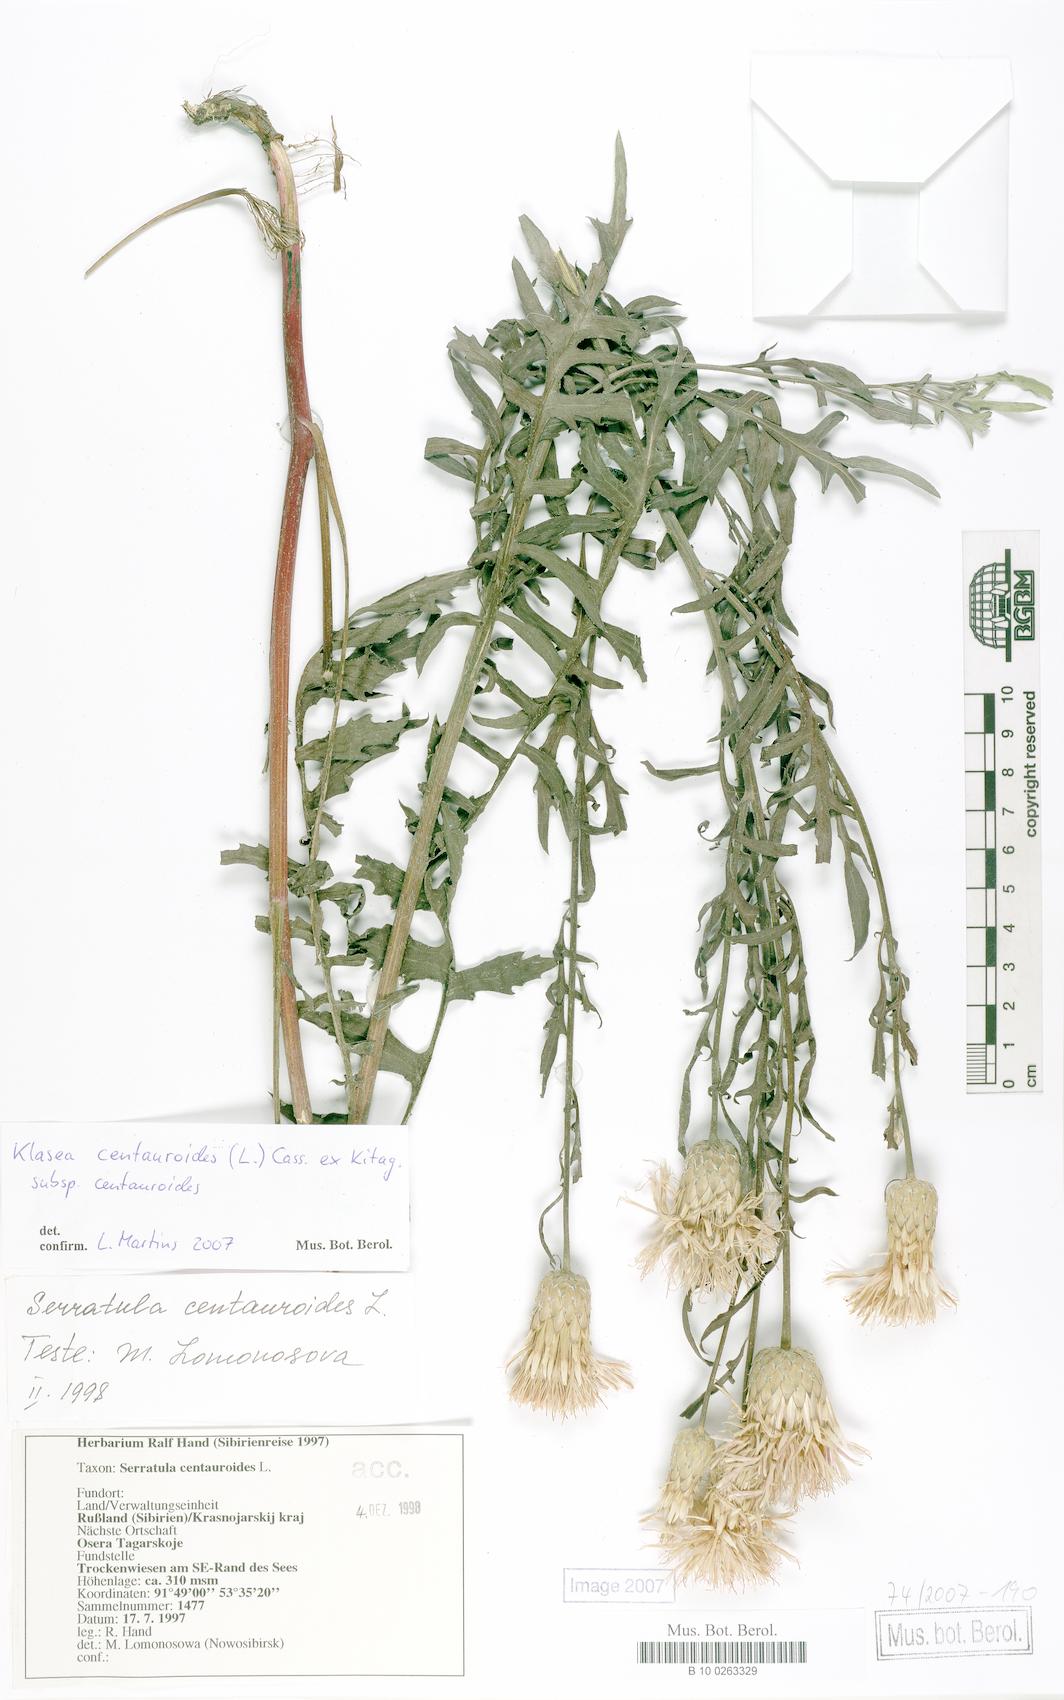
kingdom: Plantae
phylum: Tracheophyta
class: Magnoliopsida
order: Asterales
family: Asteraceae
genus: Klasea
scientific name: Klasea centauroides
